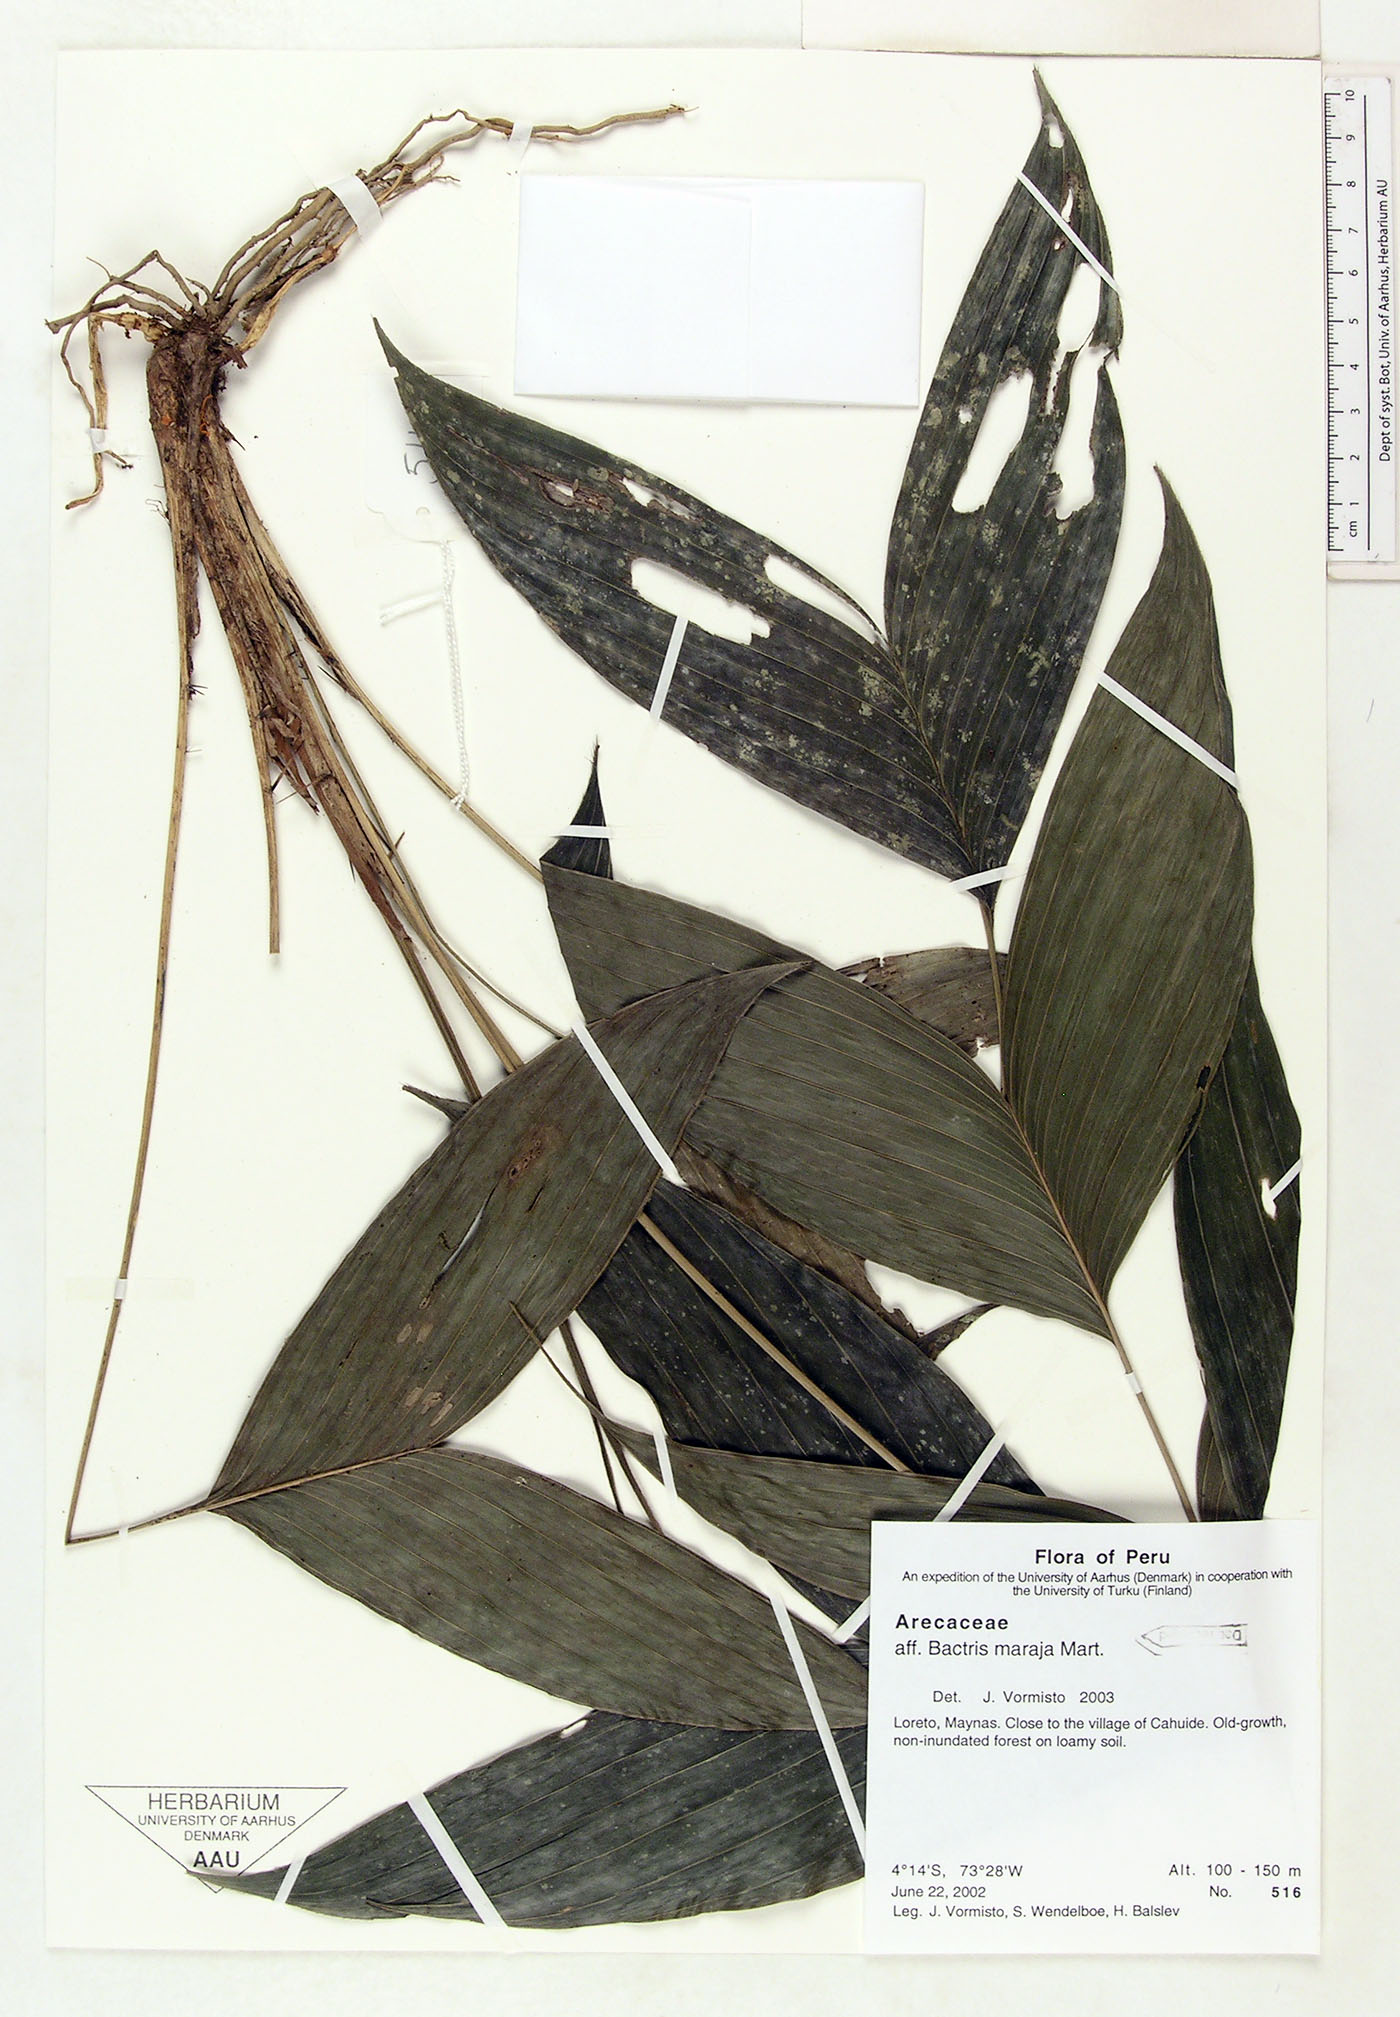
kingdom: Plantae
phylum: Tracheophyta
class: Liliopsida
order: Arecales
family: Arecaceae
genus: Bactris
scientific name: Bactris maraja
